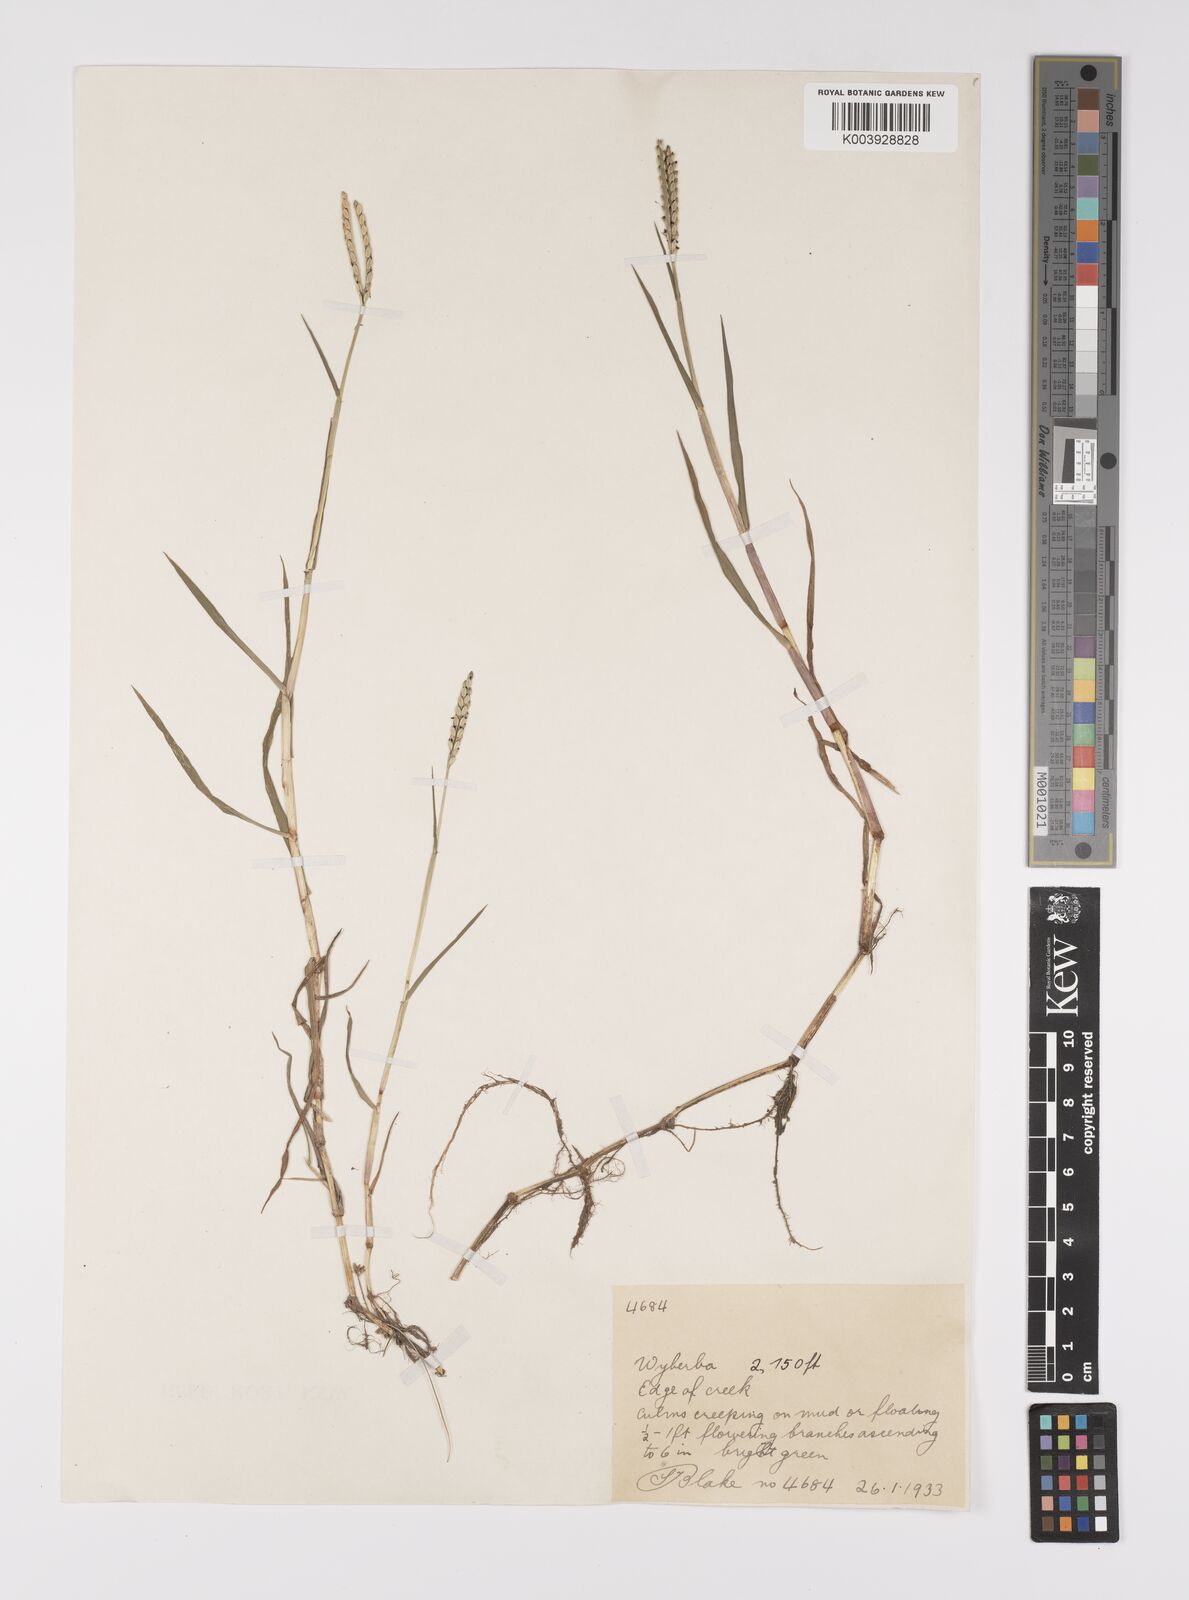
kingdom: Plantae
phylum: Tracheophyta
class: Liliopsida
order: Poales
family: Poaceae
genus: Paspalum
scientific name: Paspalum distichum
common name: Knotgrass
